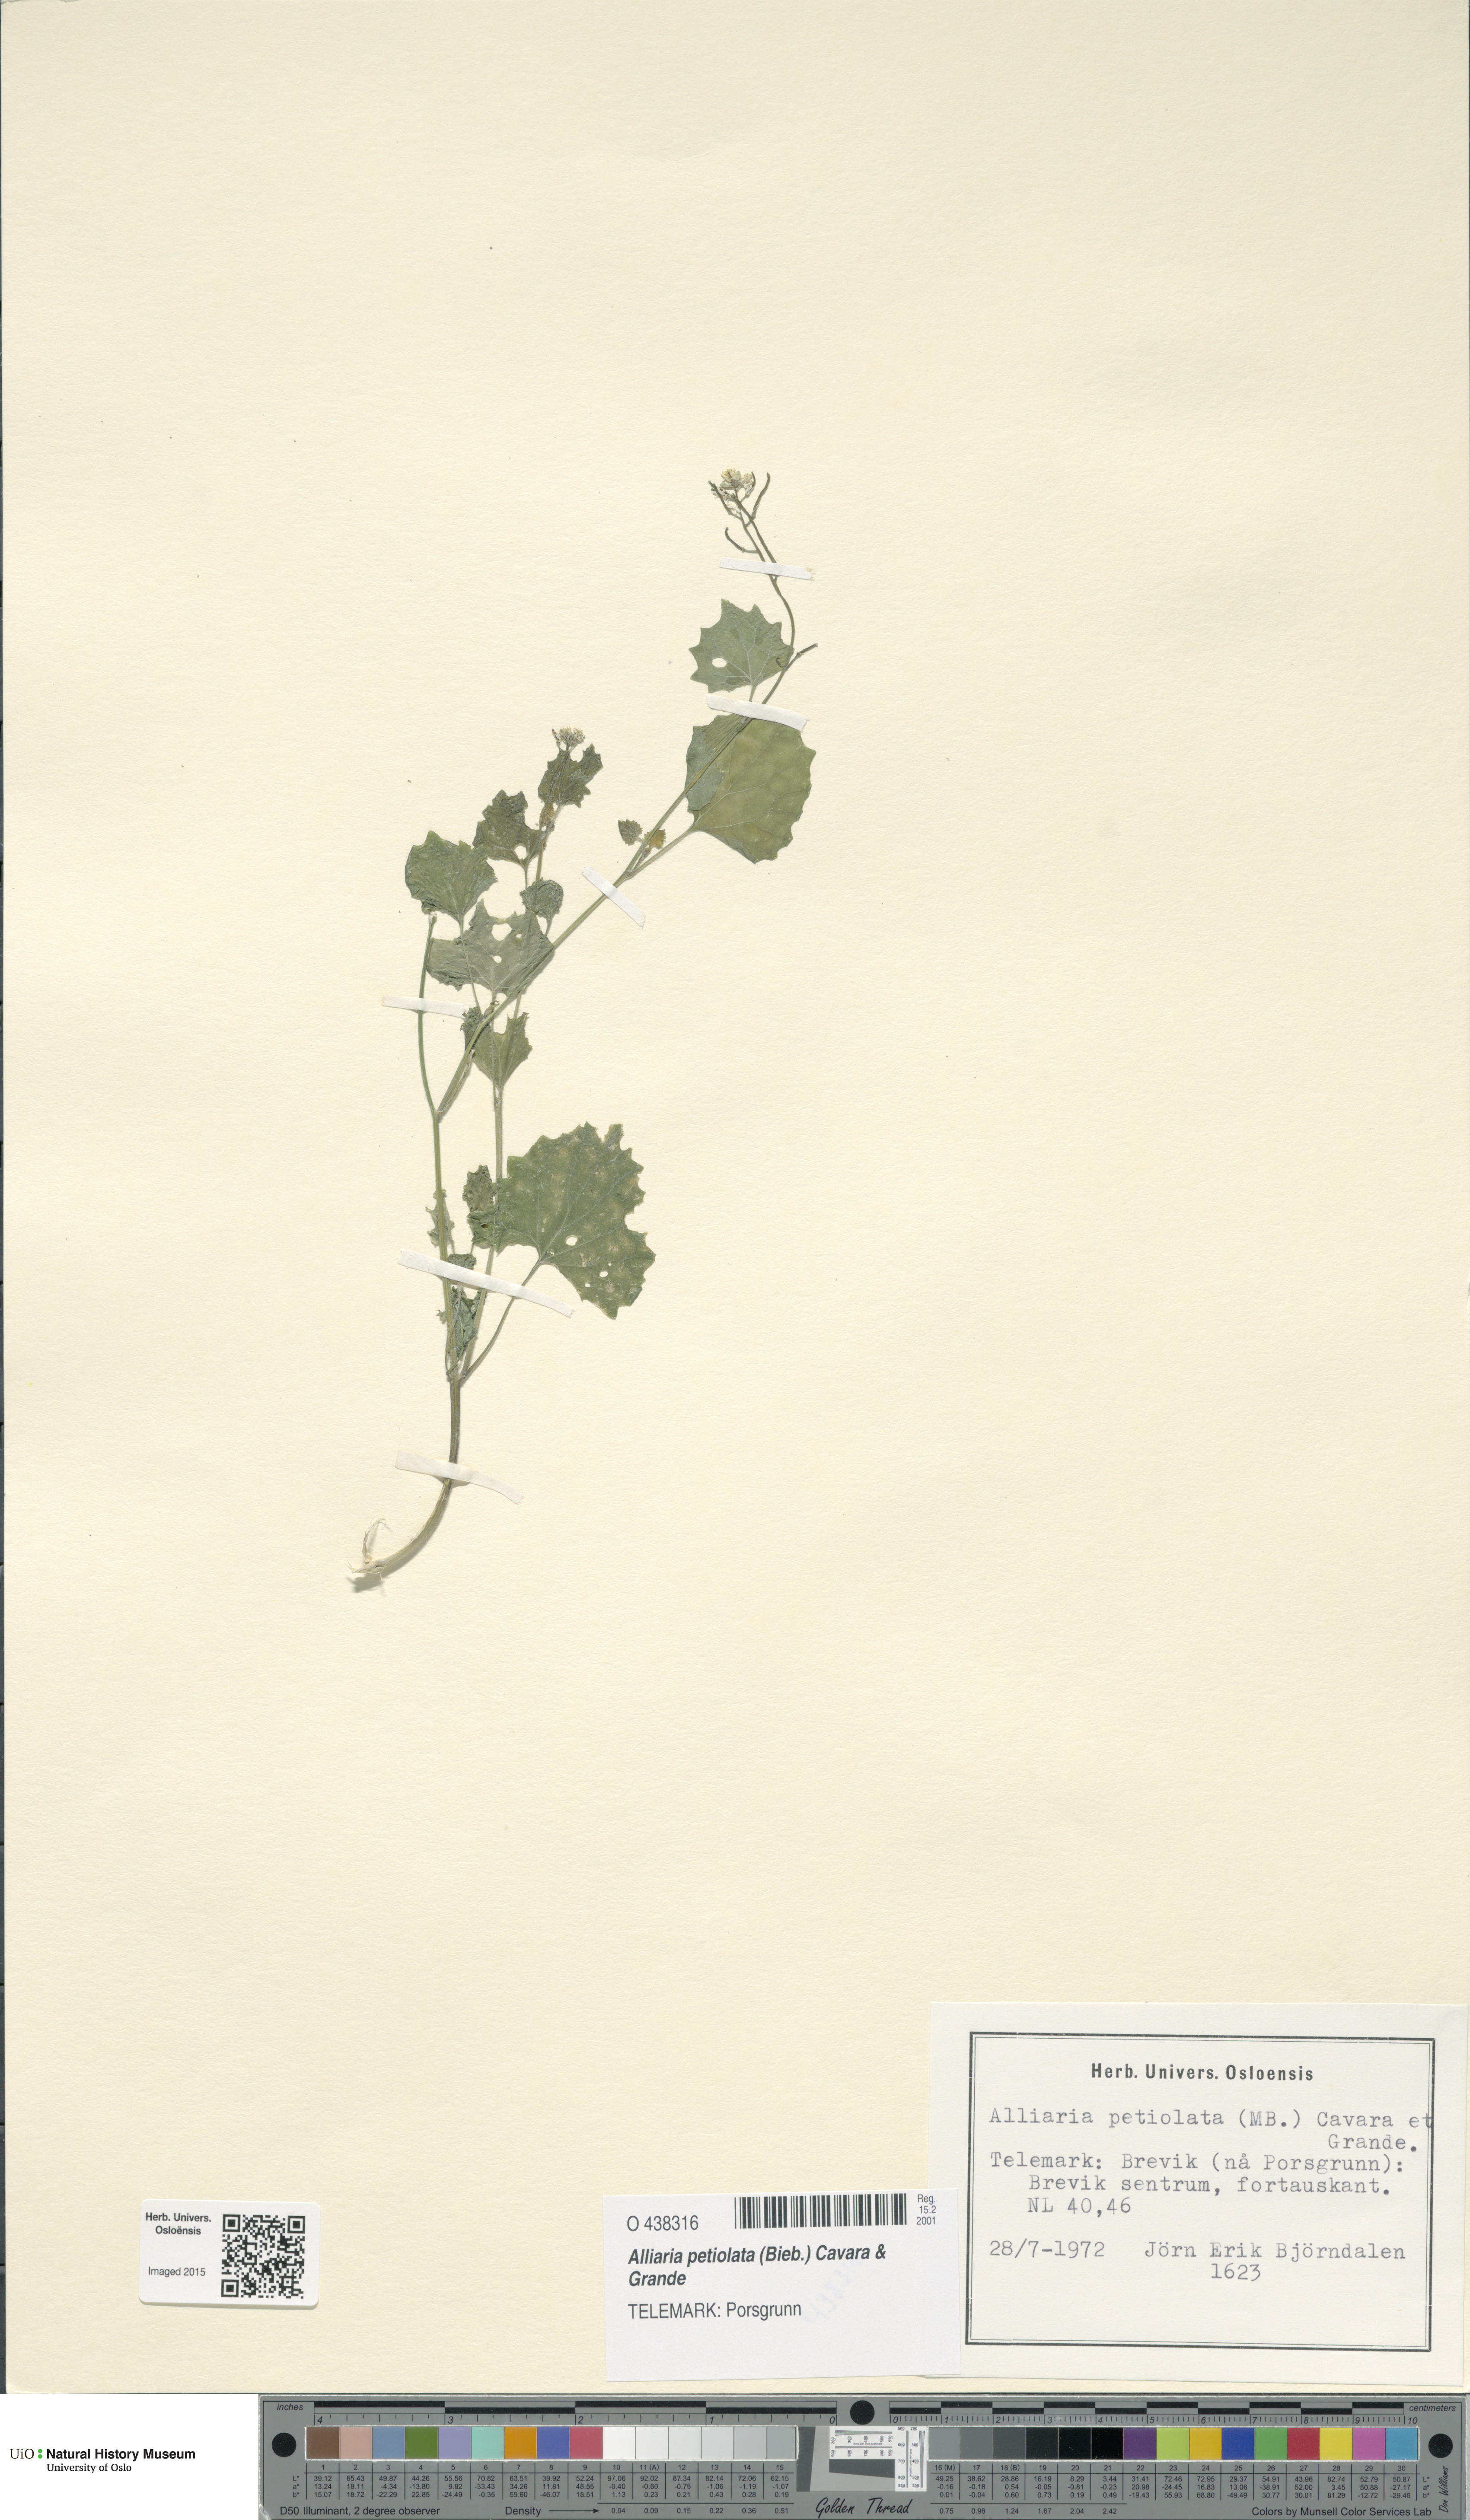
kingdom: Plantae
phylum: Tracheophyta
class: Magnoliopsida
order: Brassicales
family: Brassicaceae
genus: Alliaria
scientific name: Alliaria petiolata
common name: Garlic mustard
